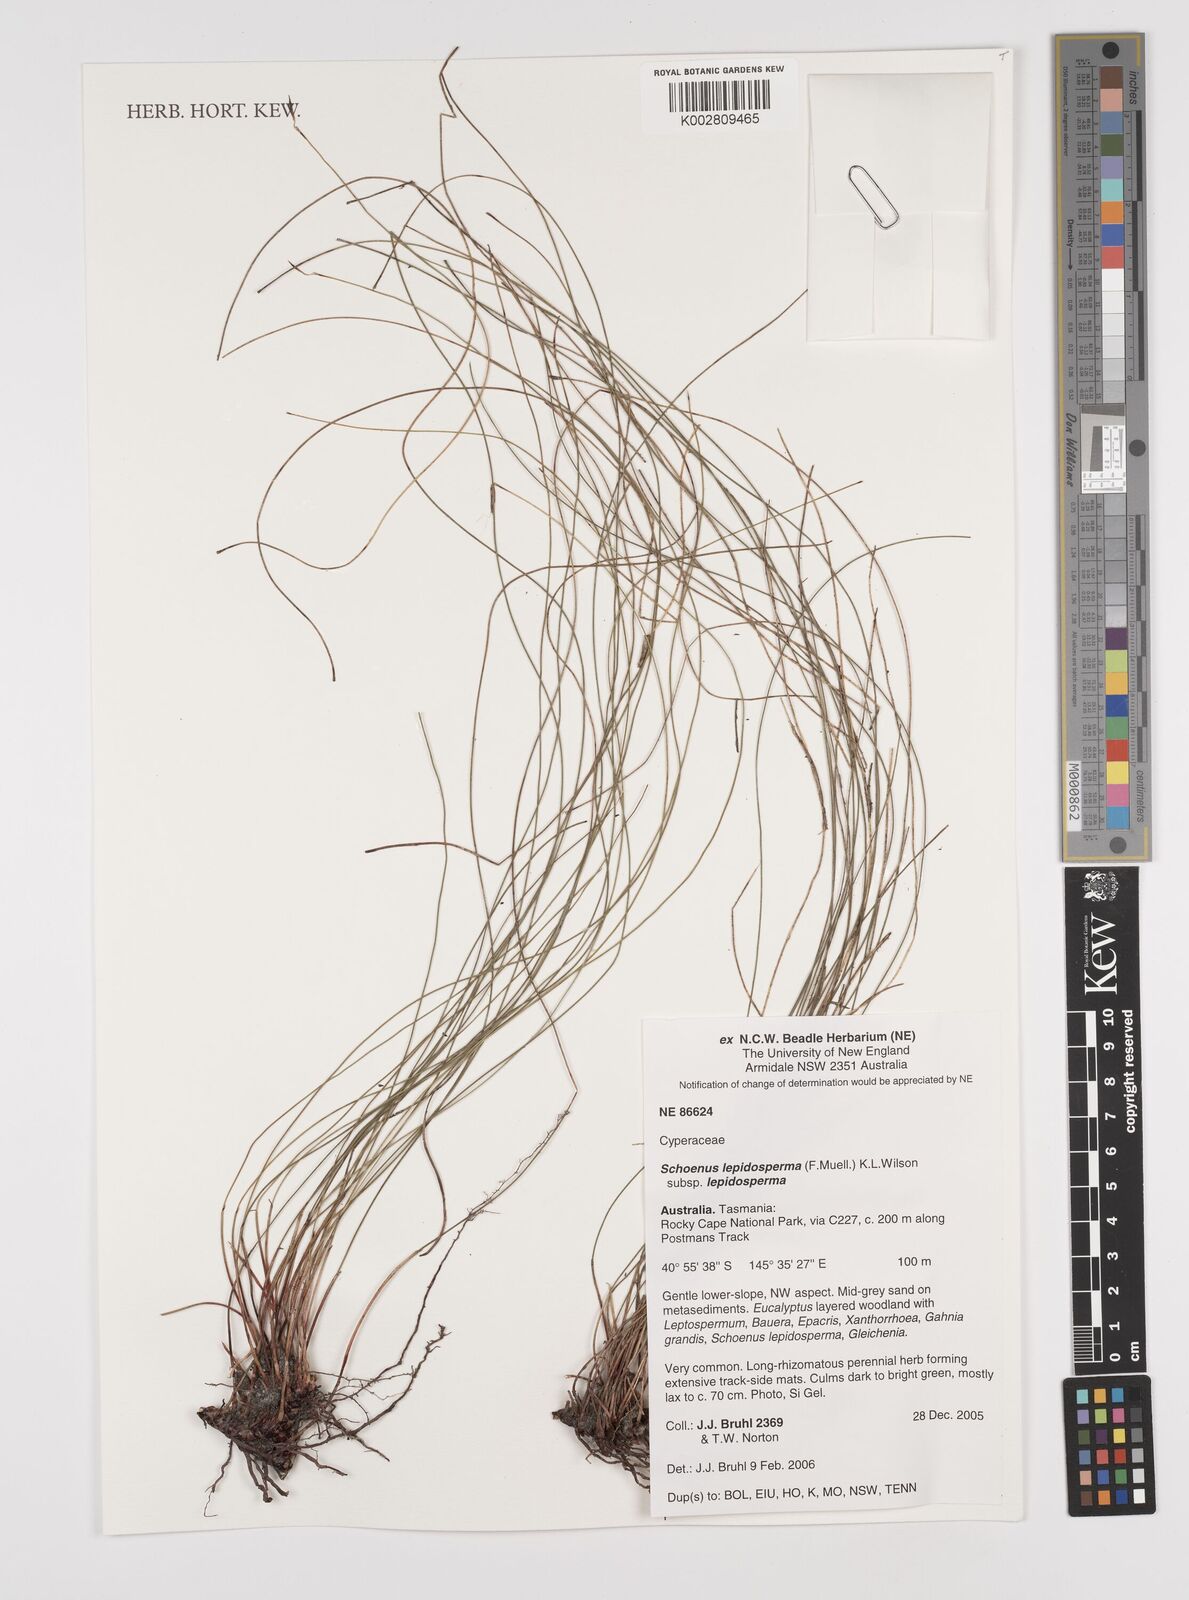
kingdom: Plantae
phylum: Tracheophyta
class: Liliopsida
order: Poales
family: Cyperaceae
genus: Schoenus
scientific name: Schoenus lepidosperma
